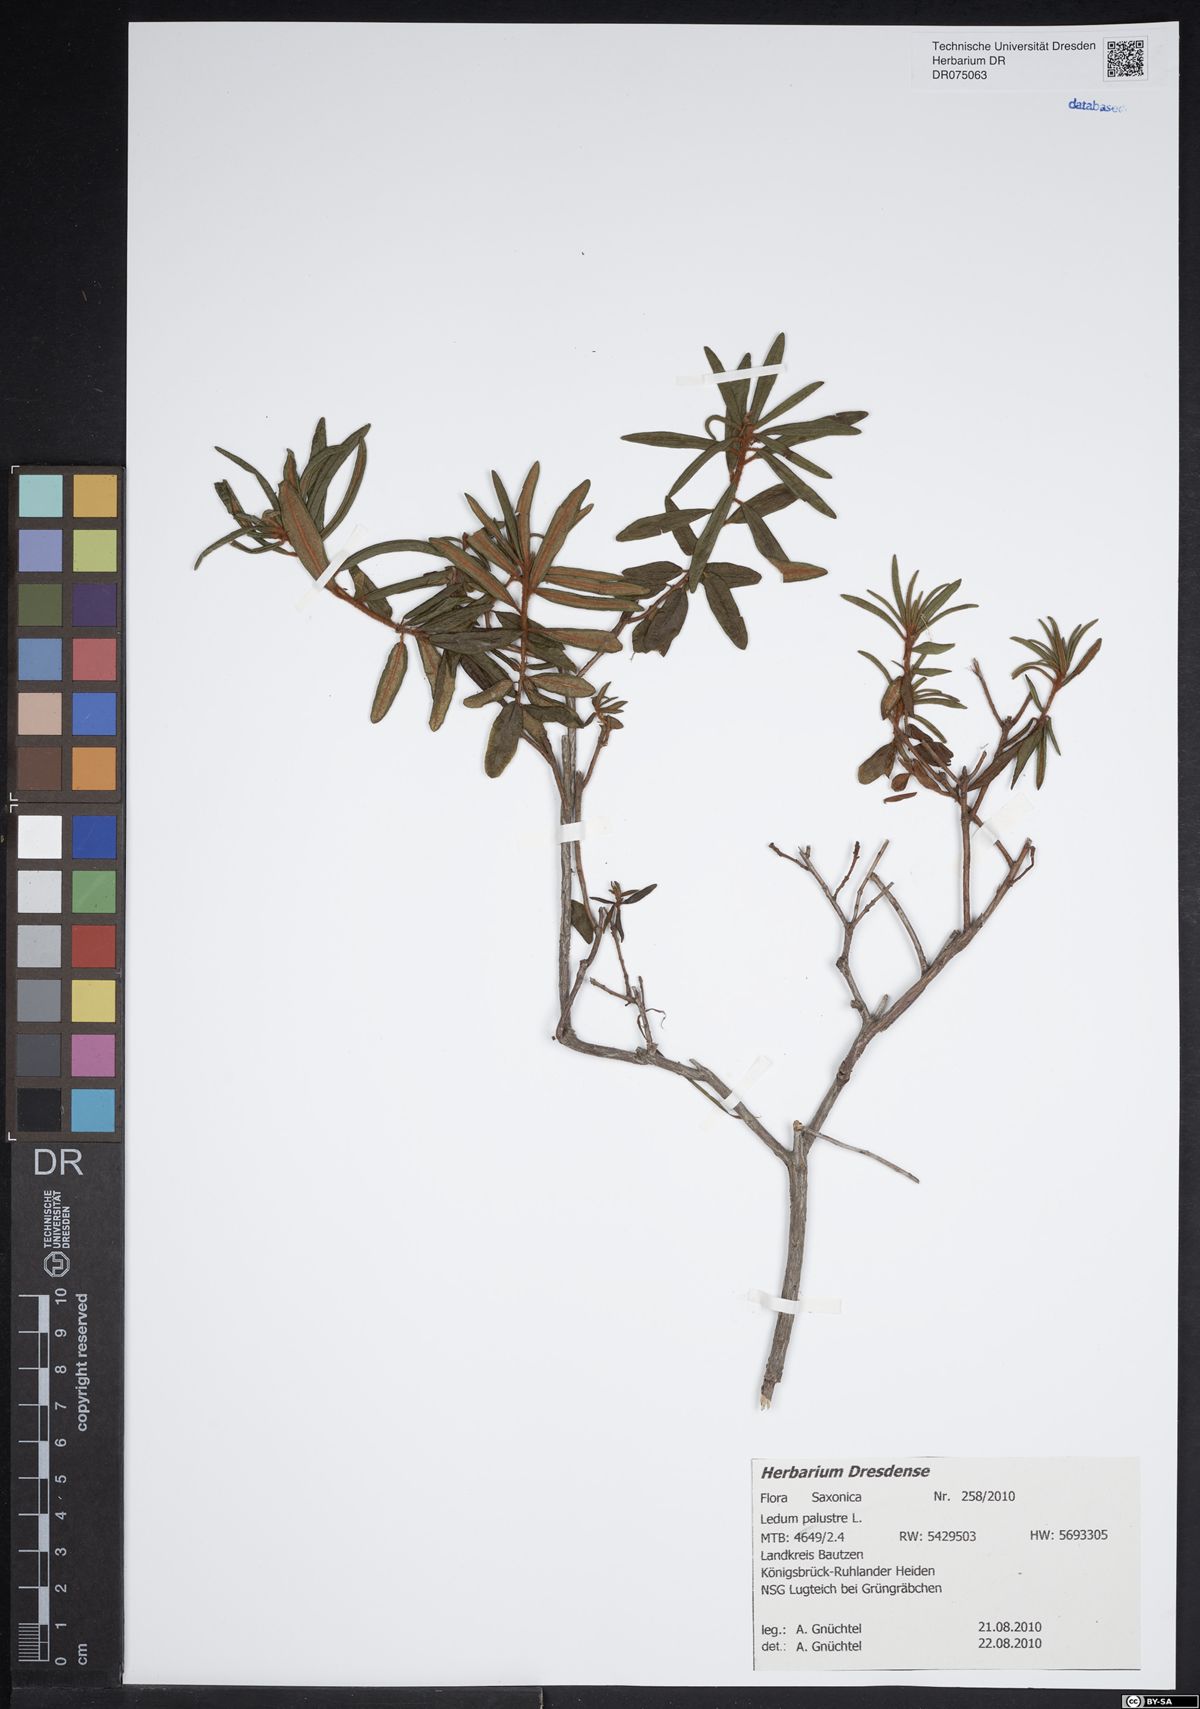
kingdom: Plantae
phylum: Tracheophyta
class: Magnoliopsida
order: Ericales
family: Ericaceae
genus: Rhododendron
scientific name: Rhododendron tomentosum
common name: Marsh labrador tea
